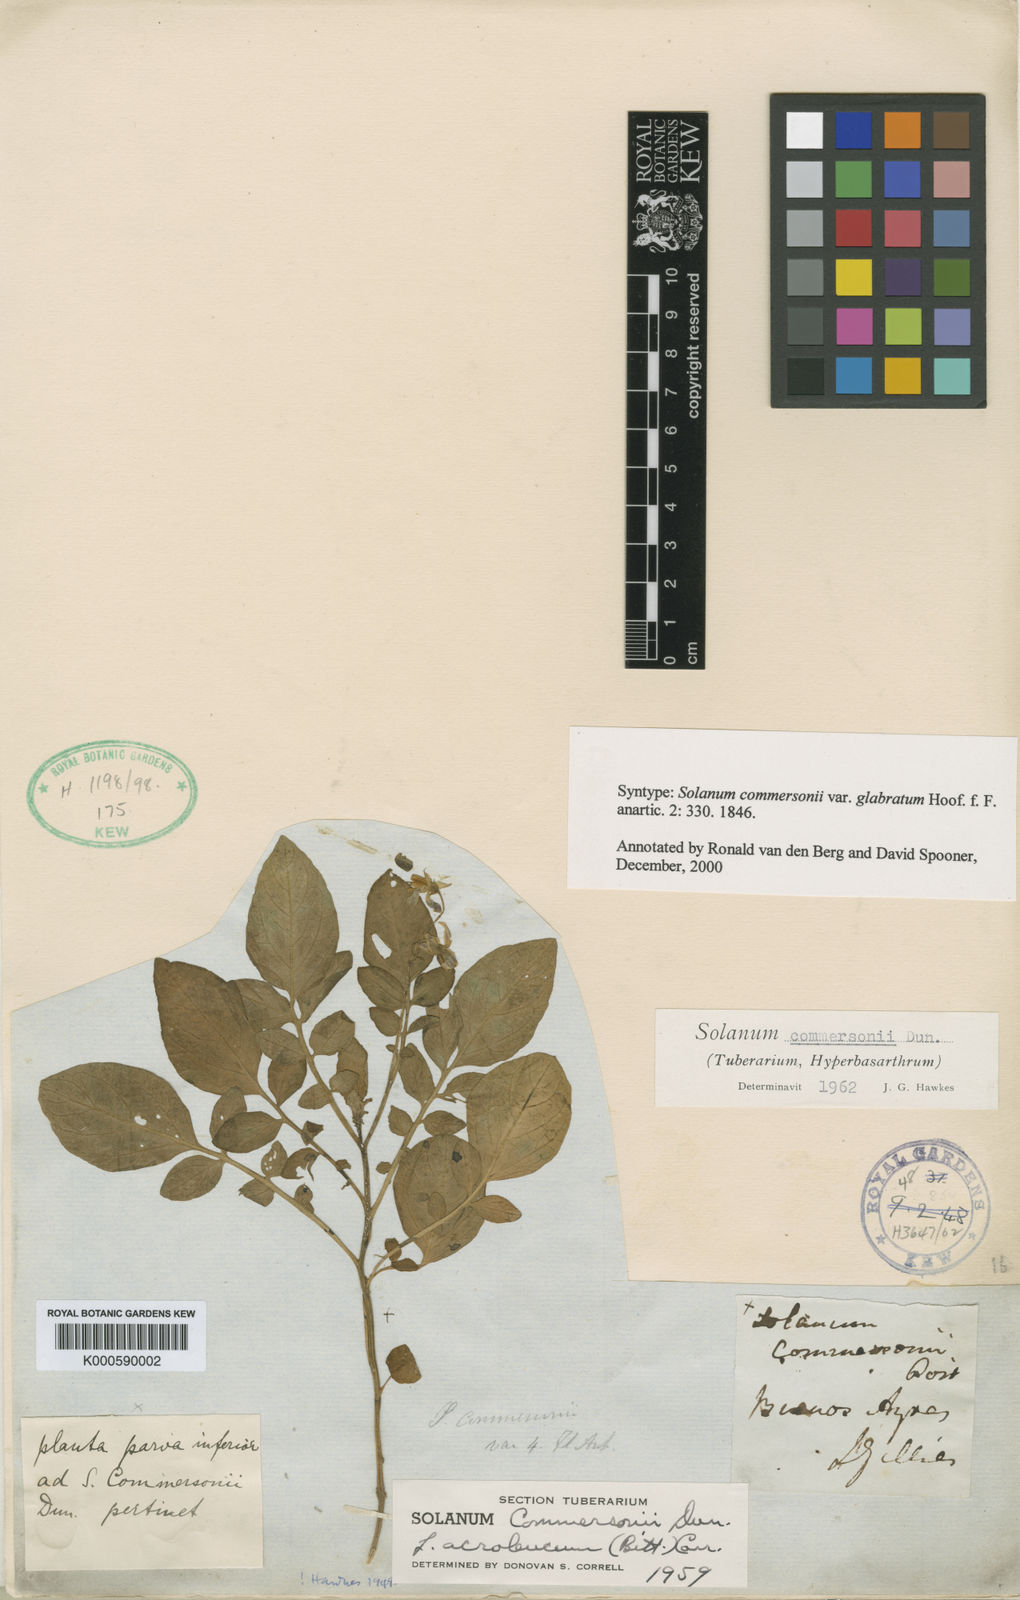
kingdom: Plantae
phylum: Tracheophyta
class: Magnoliopsida
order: Solanales
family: Solanaceae
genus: Solanum
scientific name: Solanum
